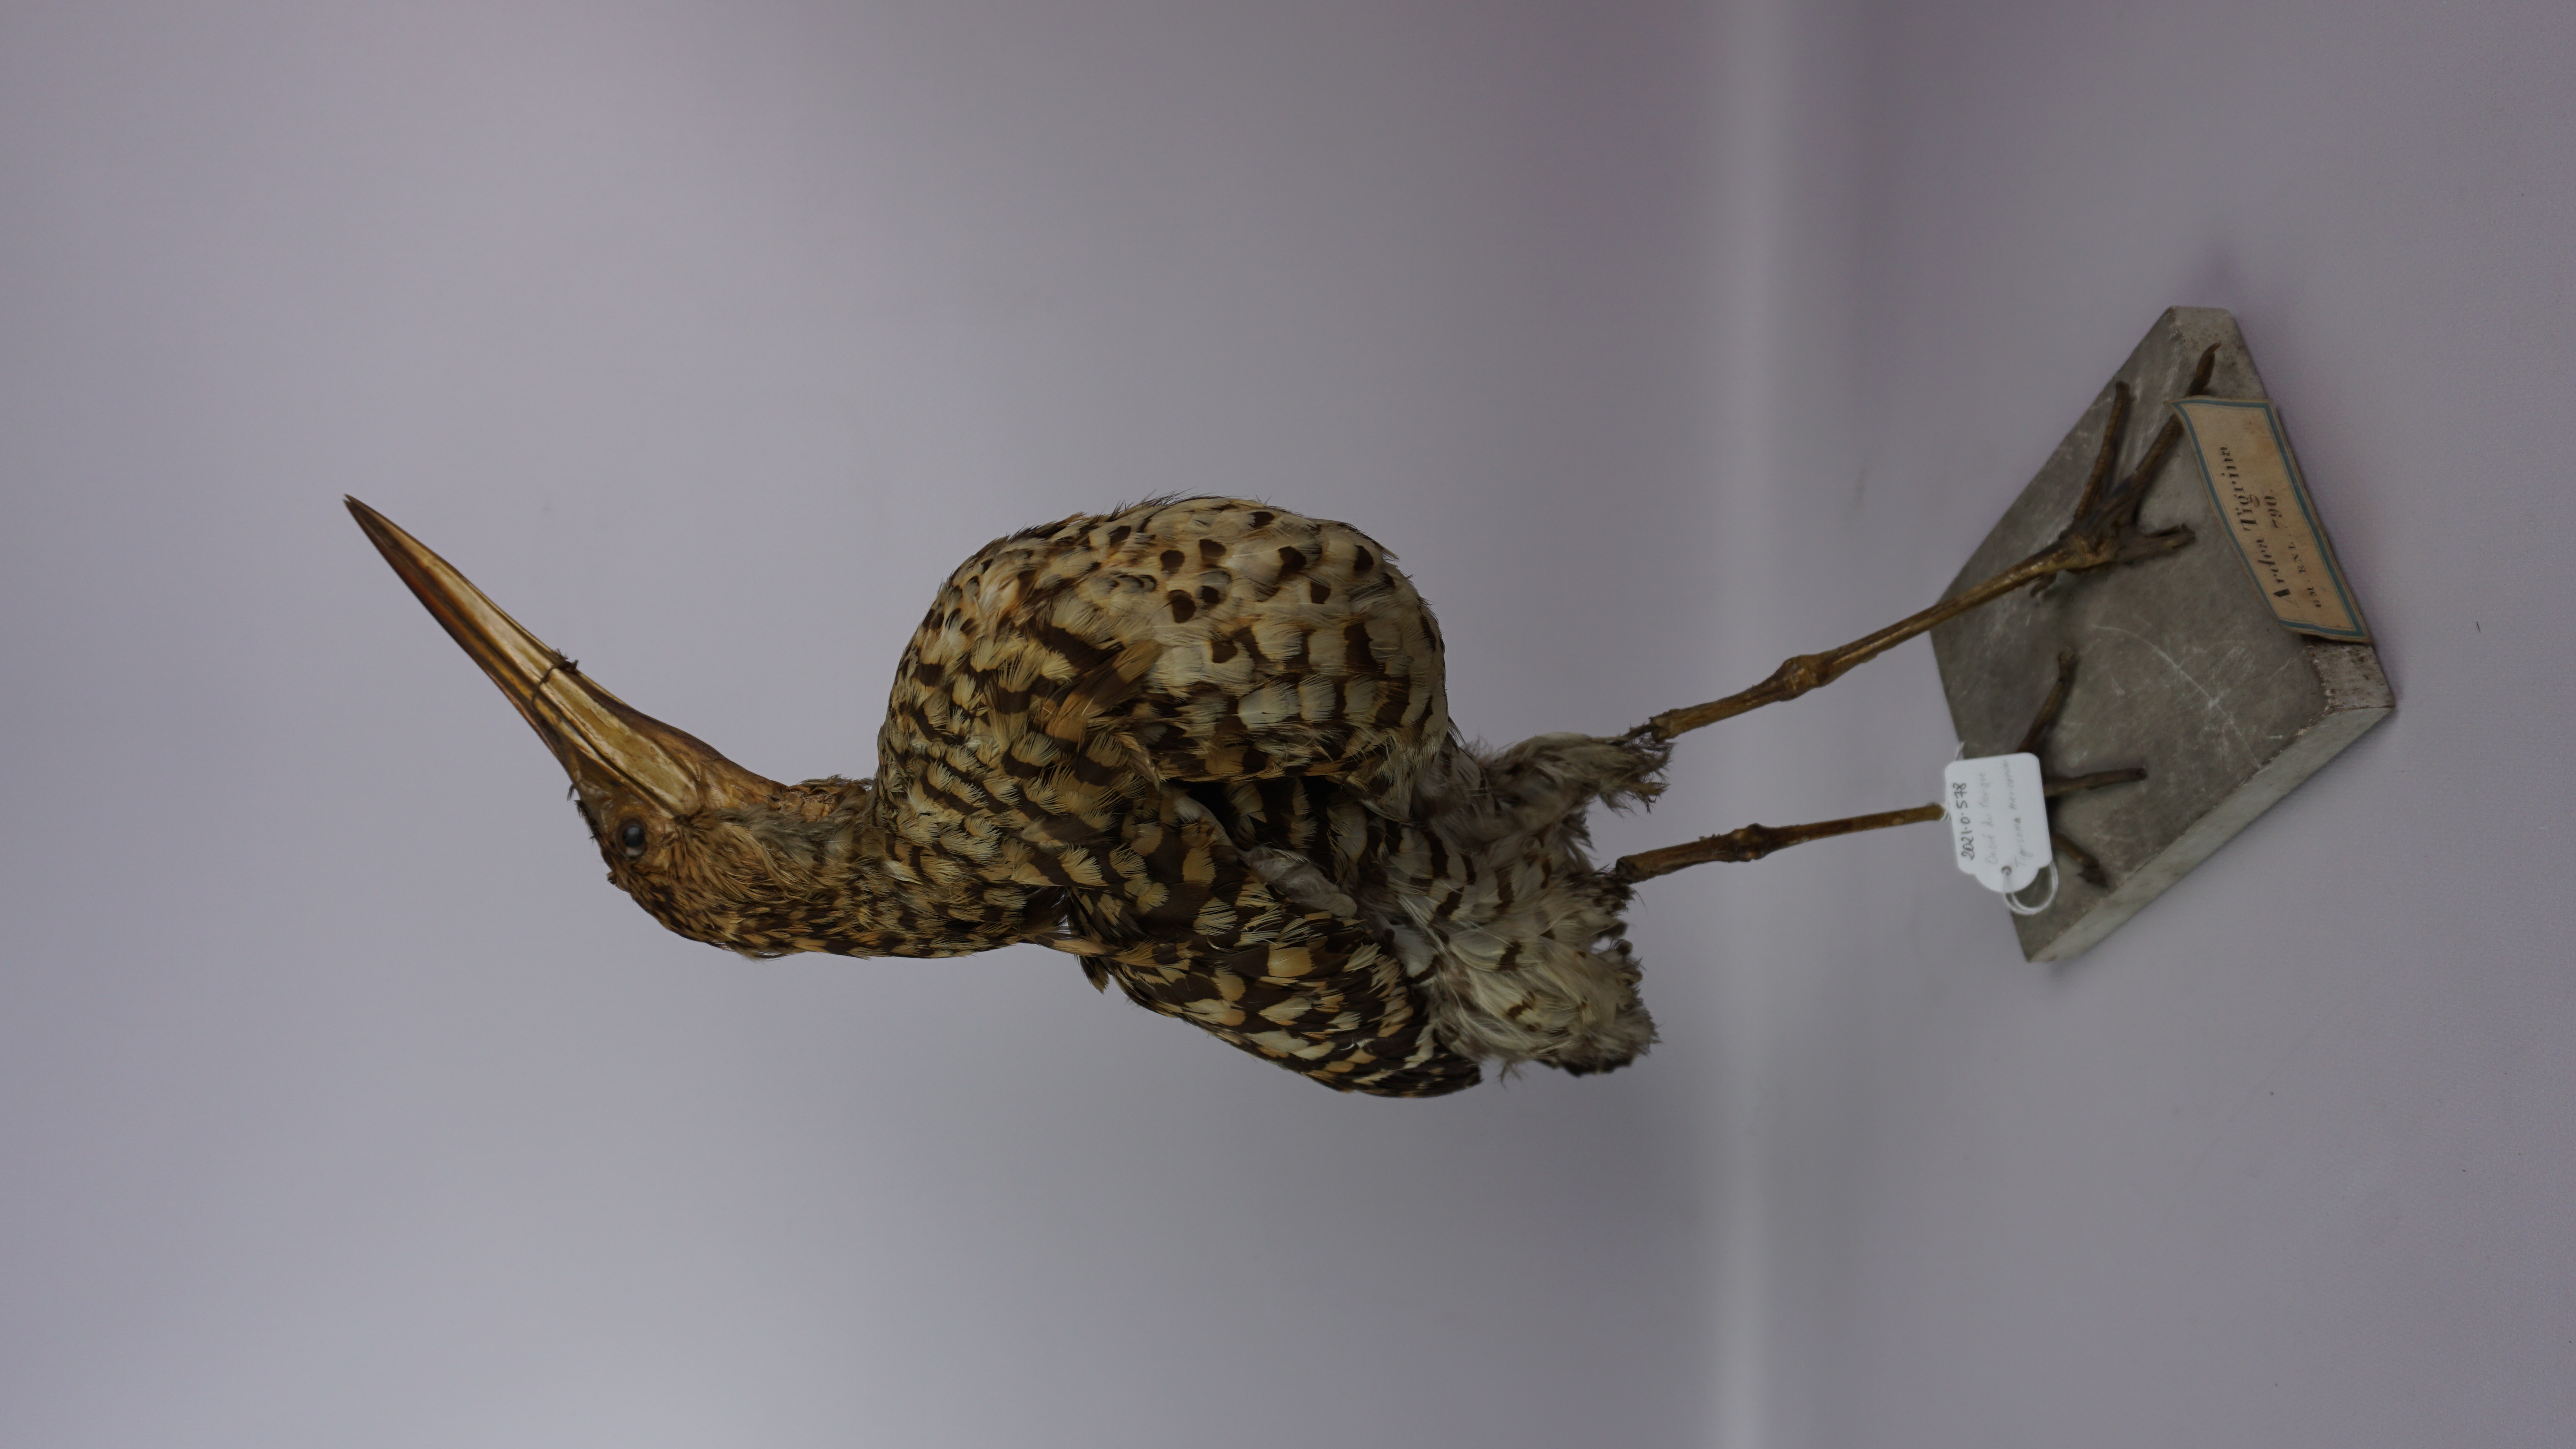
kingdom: Animalia
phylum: Chordata
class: Aves
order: Pelecaniformes
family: Ardeidae
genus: Tigrisoma
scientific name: Tigrisoma mexicanum
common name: Bare-throated tiger-heron
